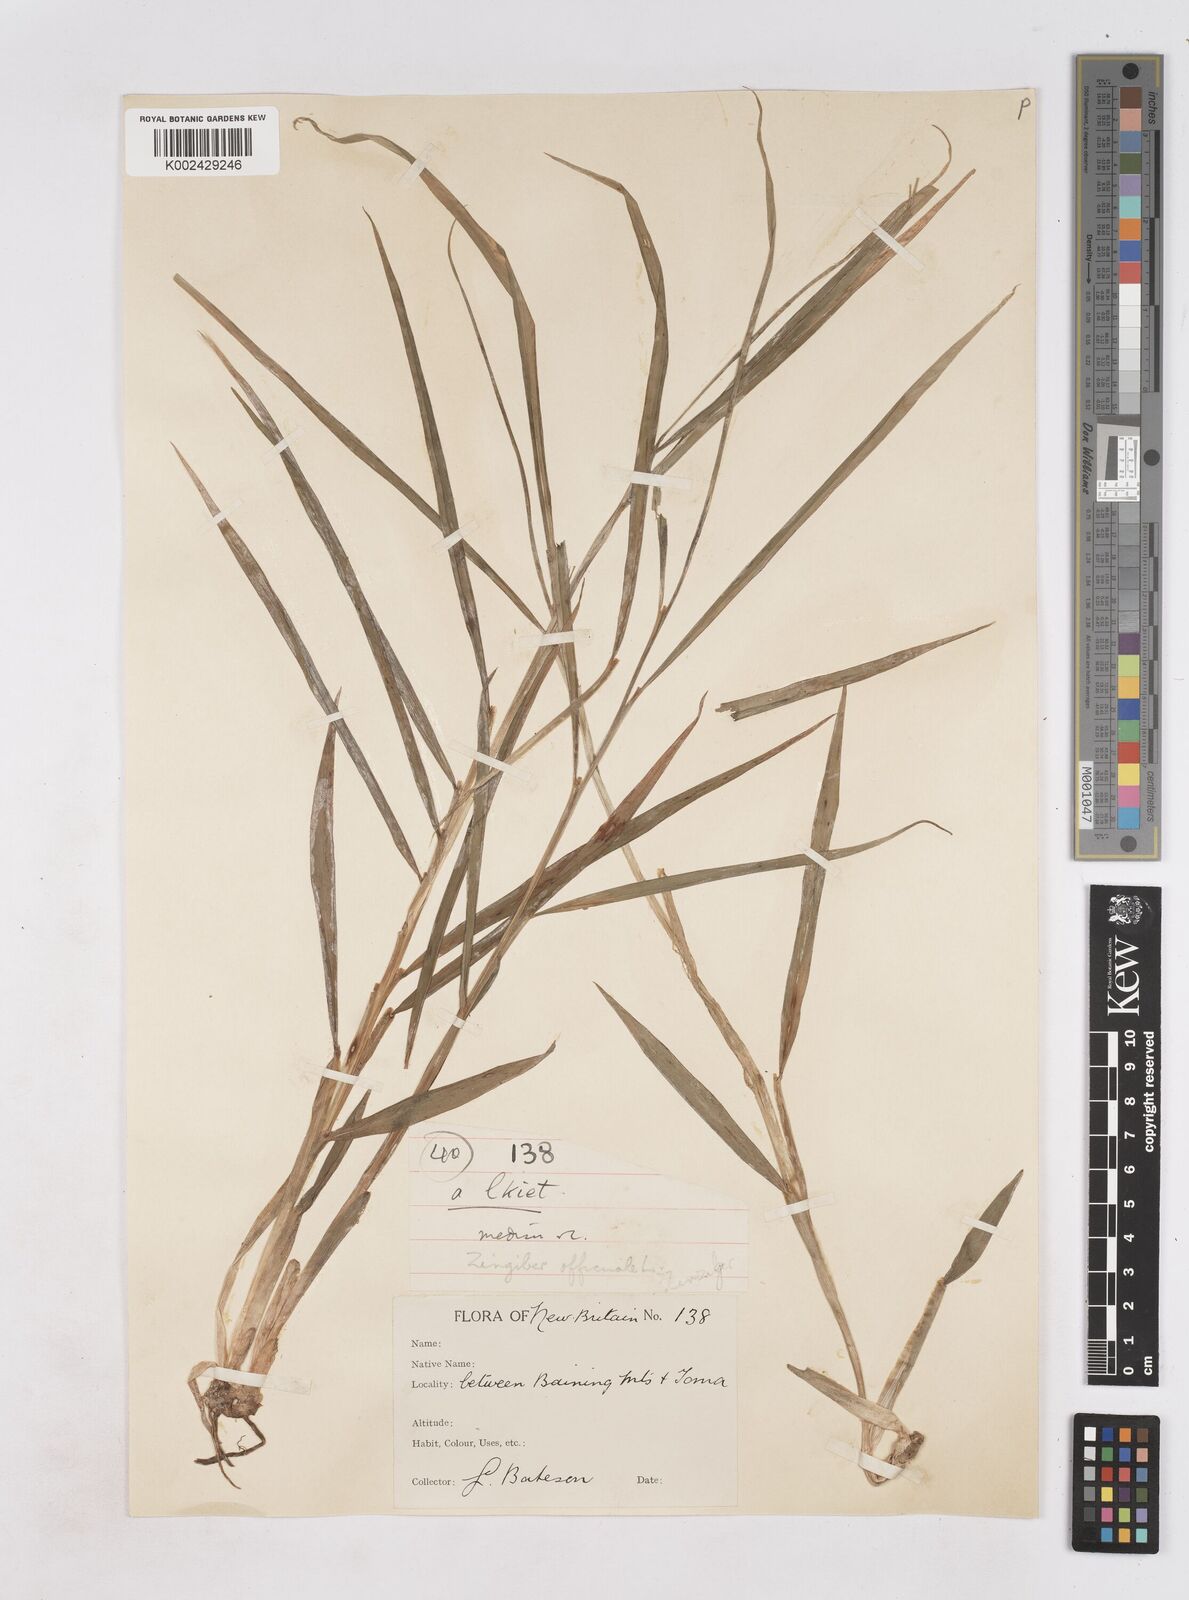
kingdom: Plantae
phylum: Tracheophyta
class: Liliopsida
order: Zingiberales
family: Zingiberaceae
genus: Zingiber
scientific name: Zingiber officinale
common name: Ginger
